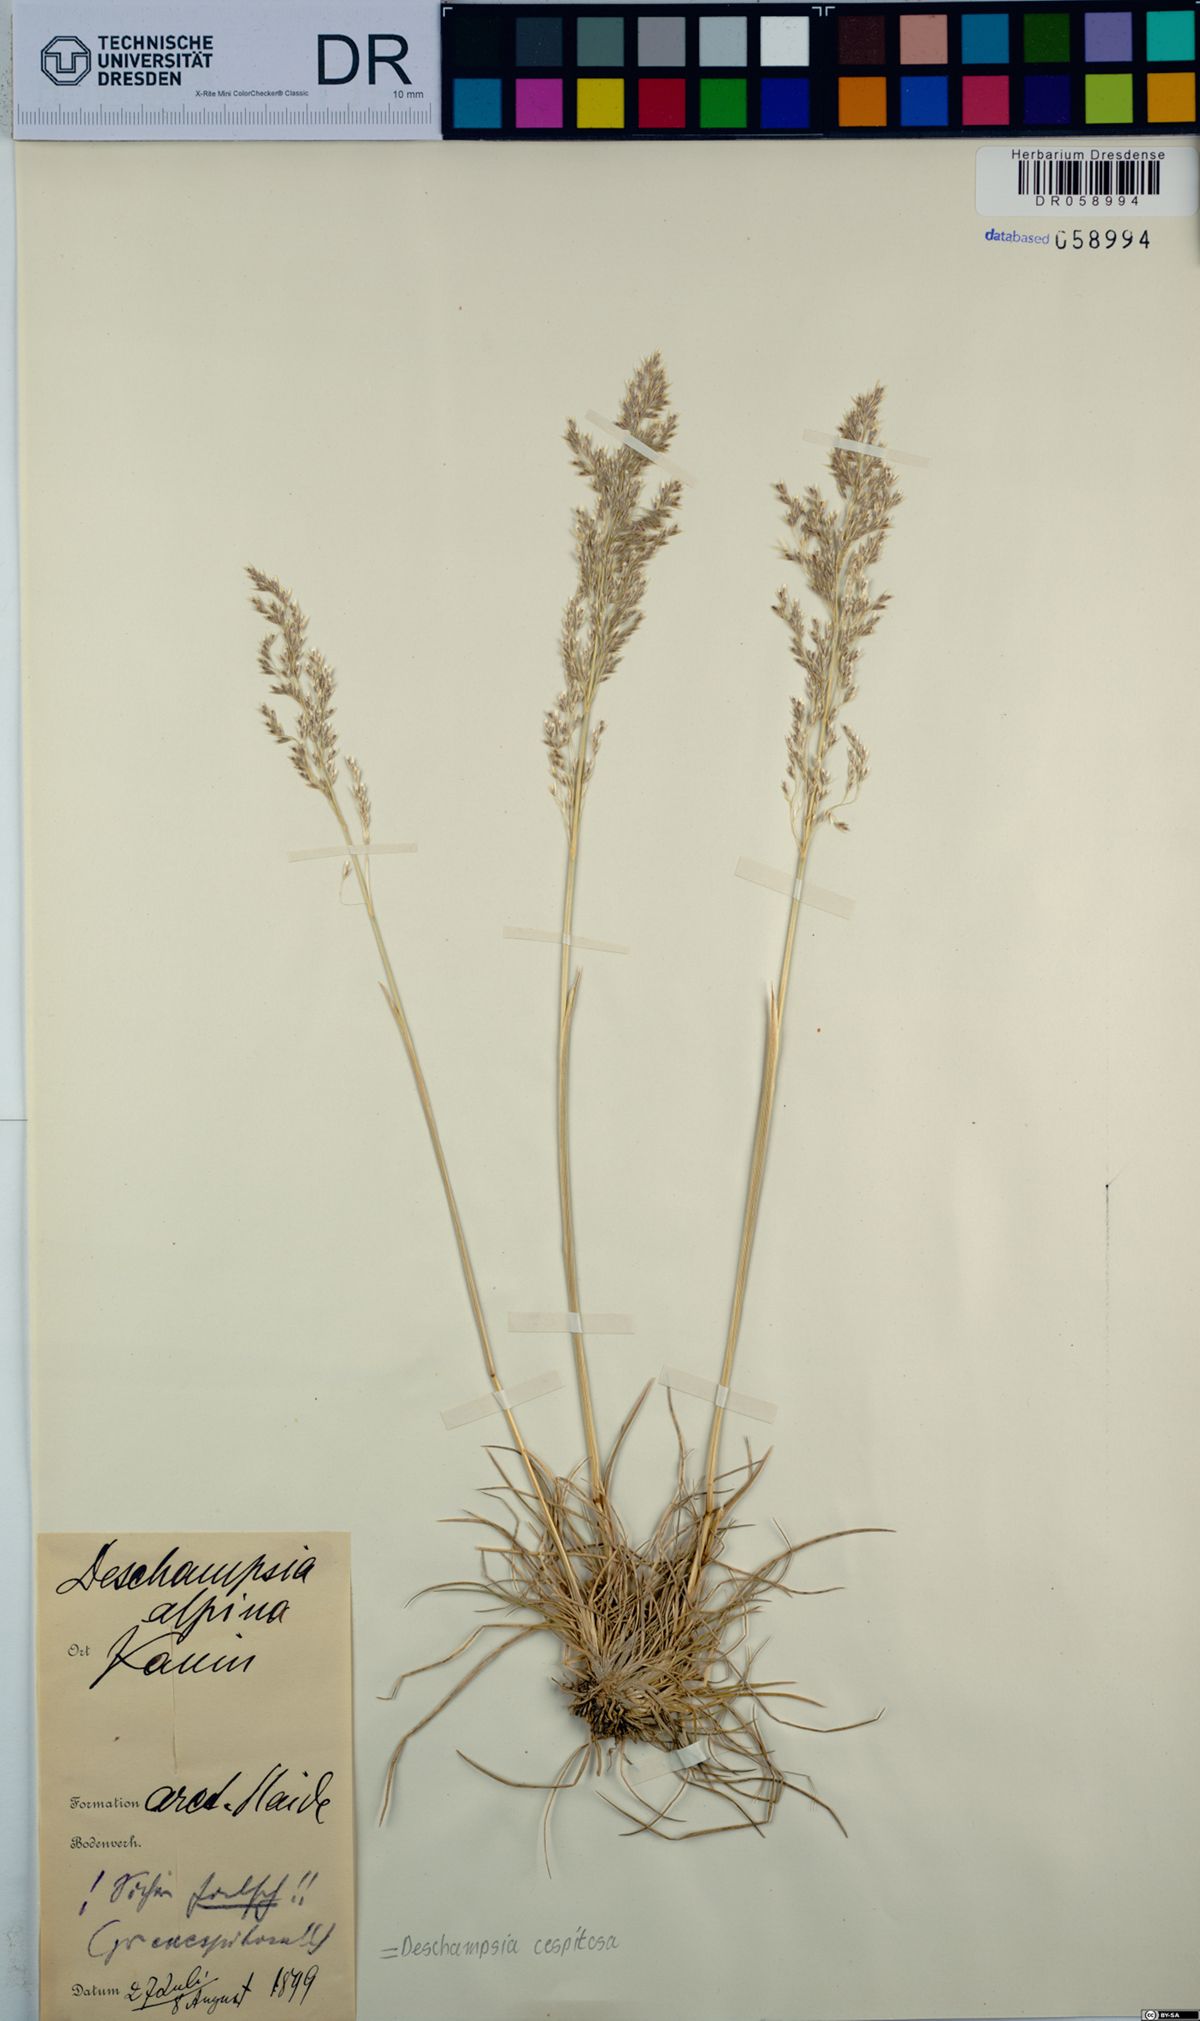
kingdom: Plantae
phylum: Tracheophyta
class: Liliopsida
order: Poales
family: Poaceae
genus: Deschampsia
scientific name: Deschampsia cespitosa
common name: Tufted hair-grass
